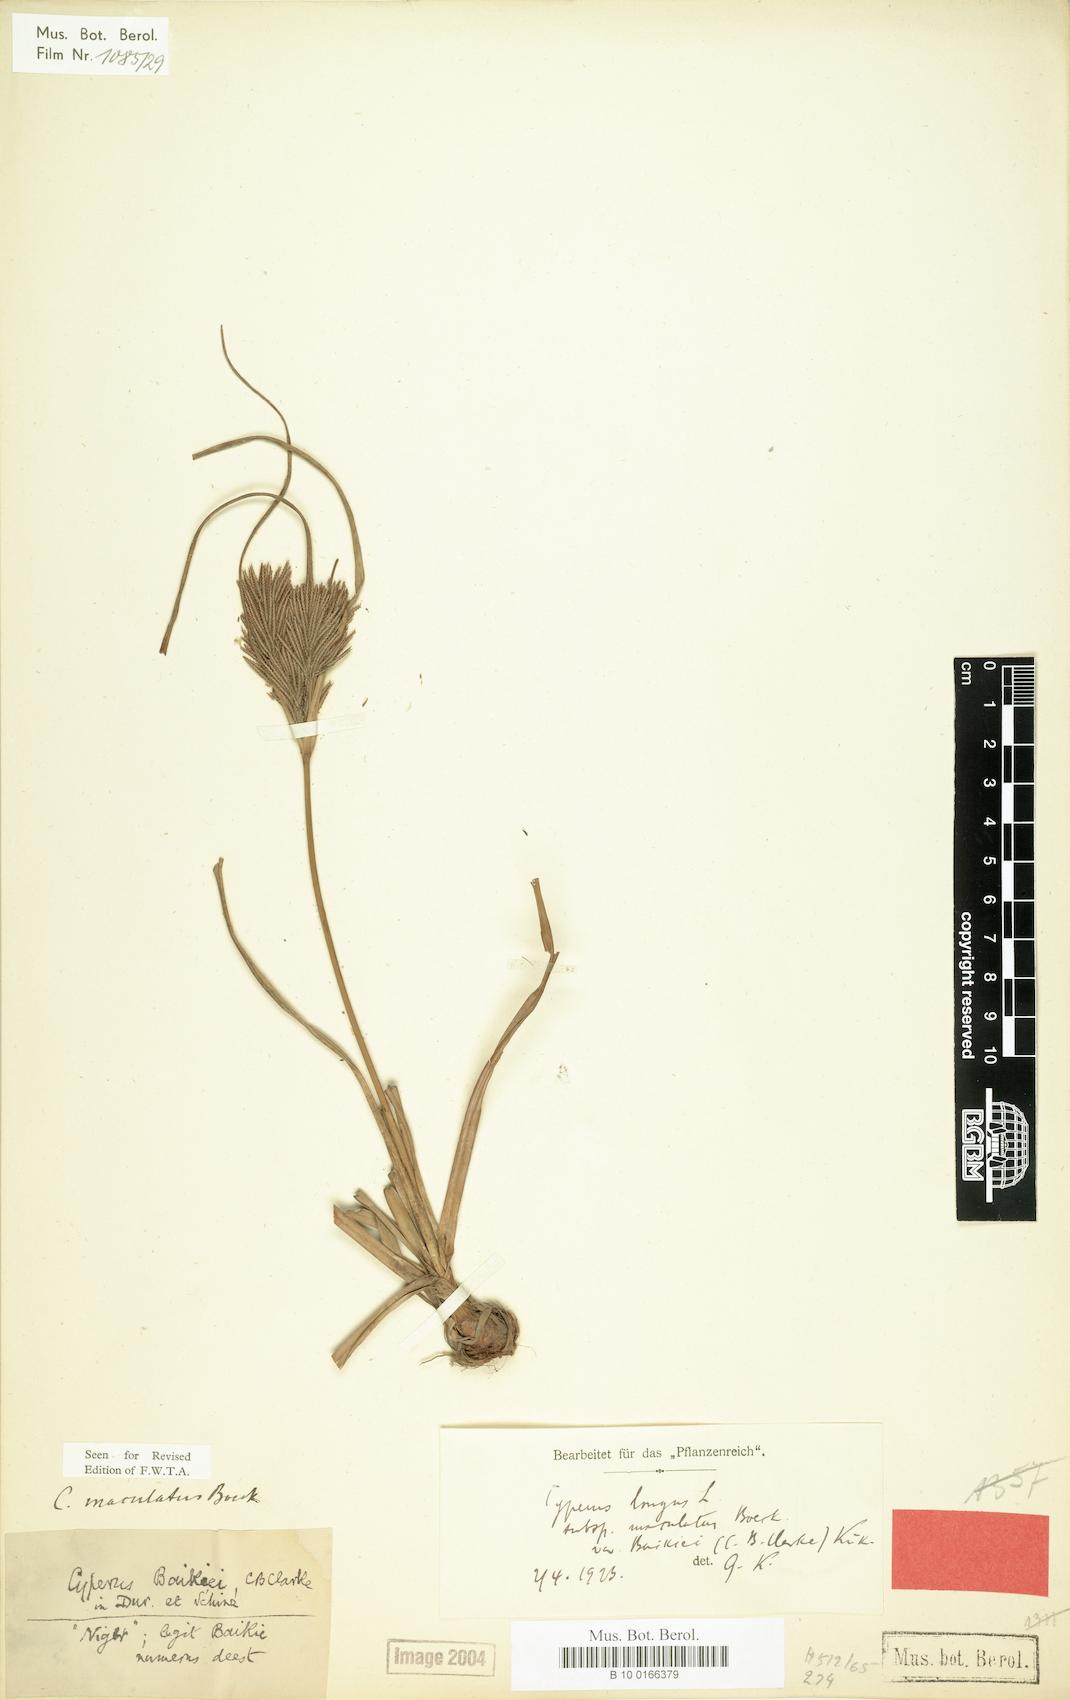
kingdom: Plantae
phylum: Tracheophyta
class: Liliopsida
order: Poales
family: Cyperaceae
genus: Cyperus
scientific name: Cyperus maculatus
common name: Maculated sedge
